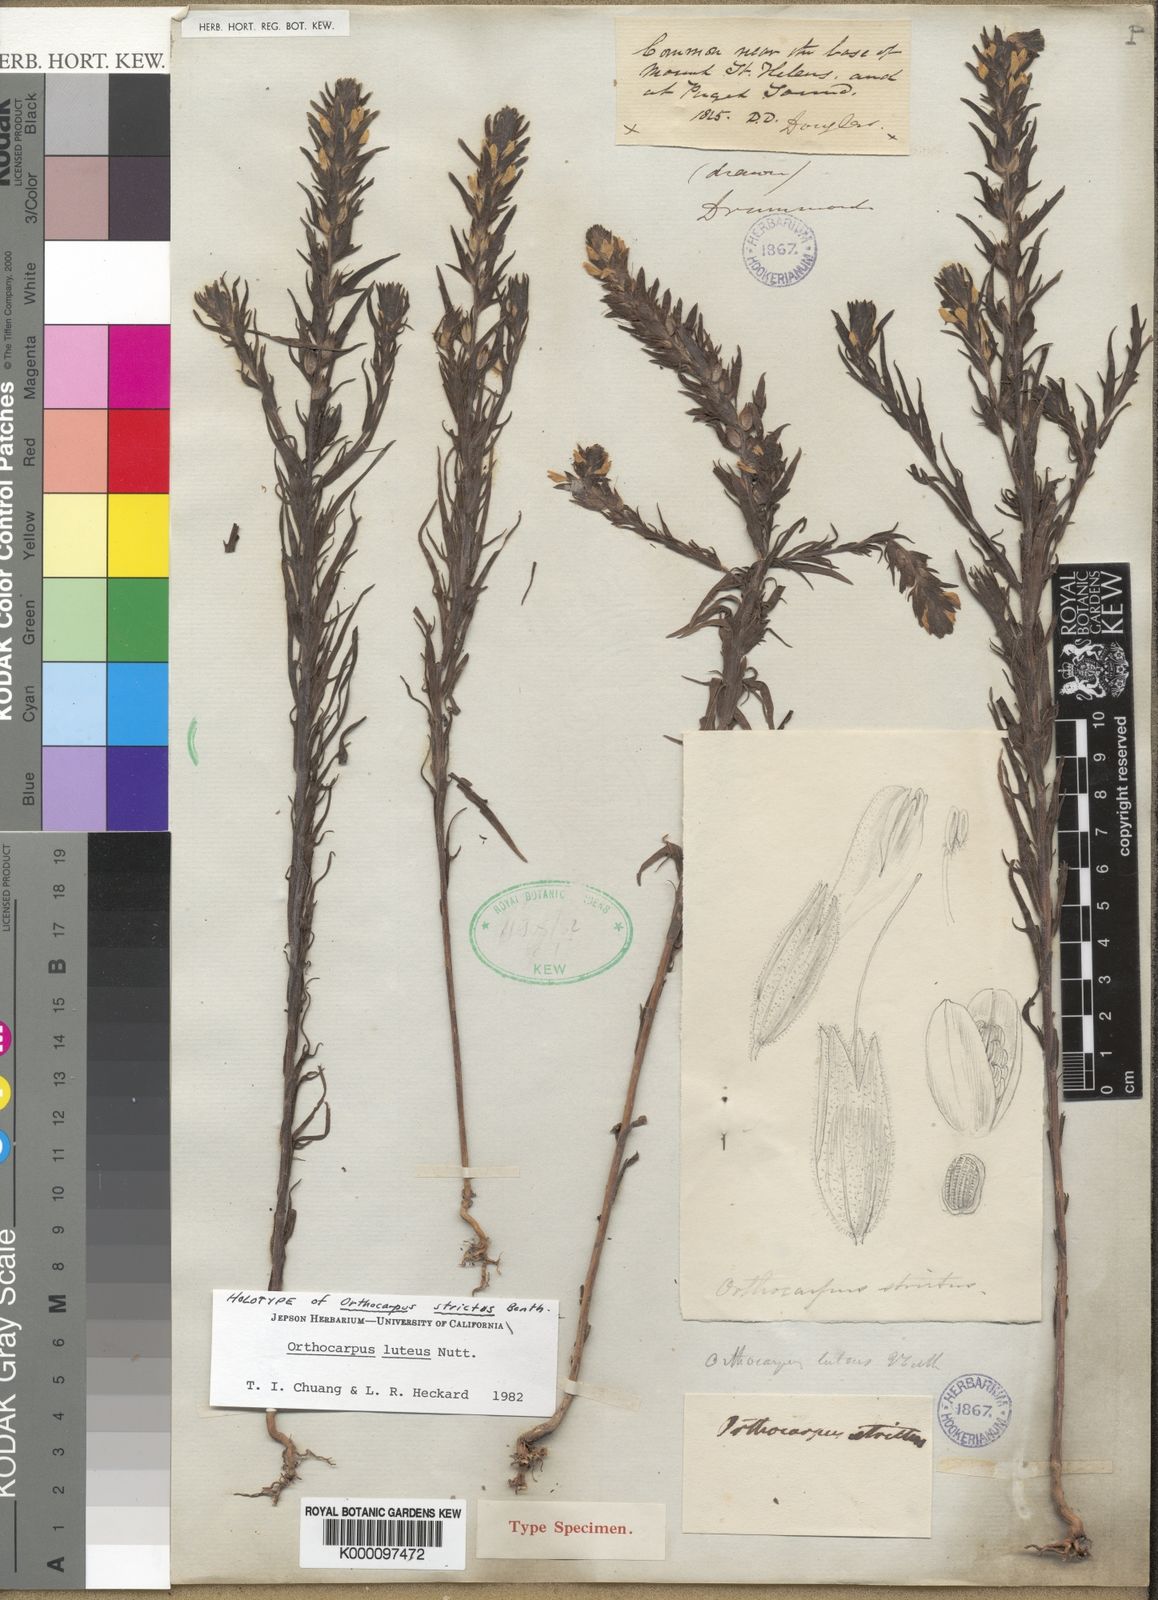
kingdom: Plantae
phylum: Tracheophyta
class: Magnoliopsida
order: Lamiales
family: Orobanchaceae
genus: Orthocarpus
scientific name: Orthocarpus luteus
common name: Golden-tongue owl's-clover
